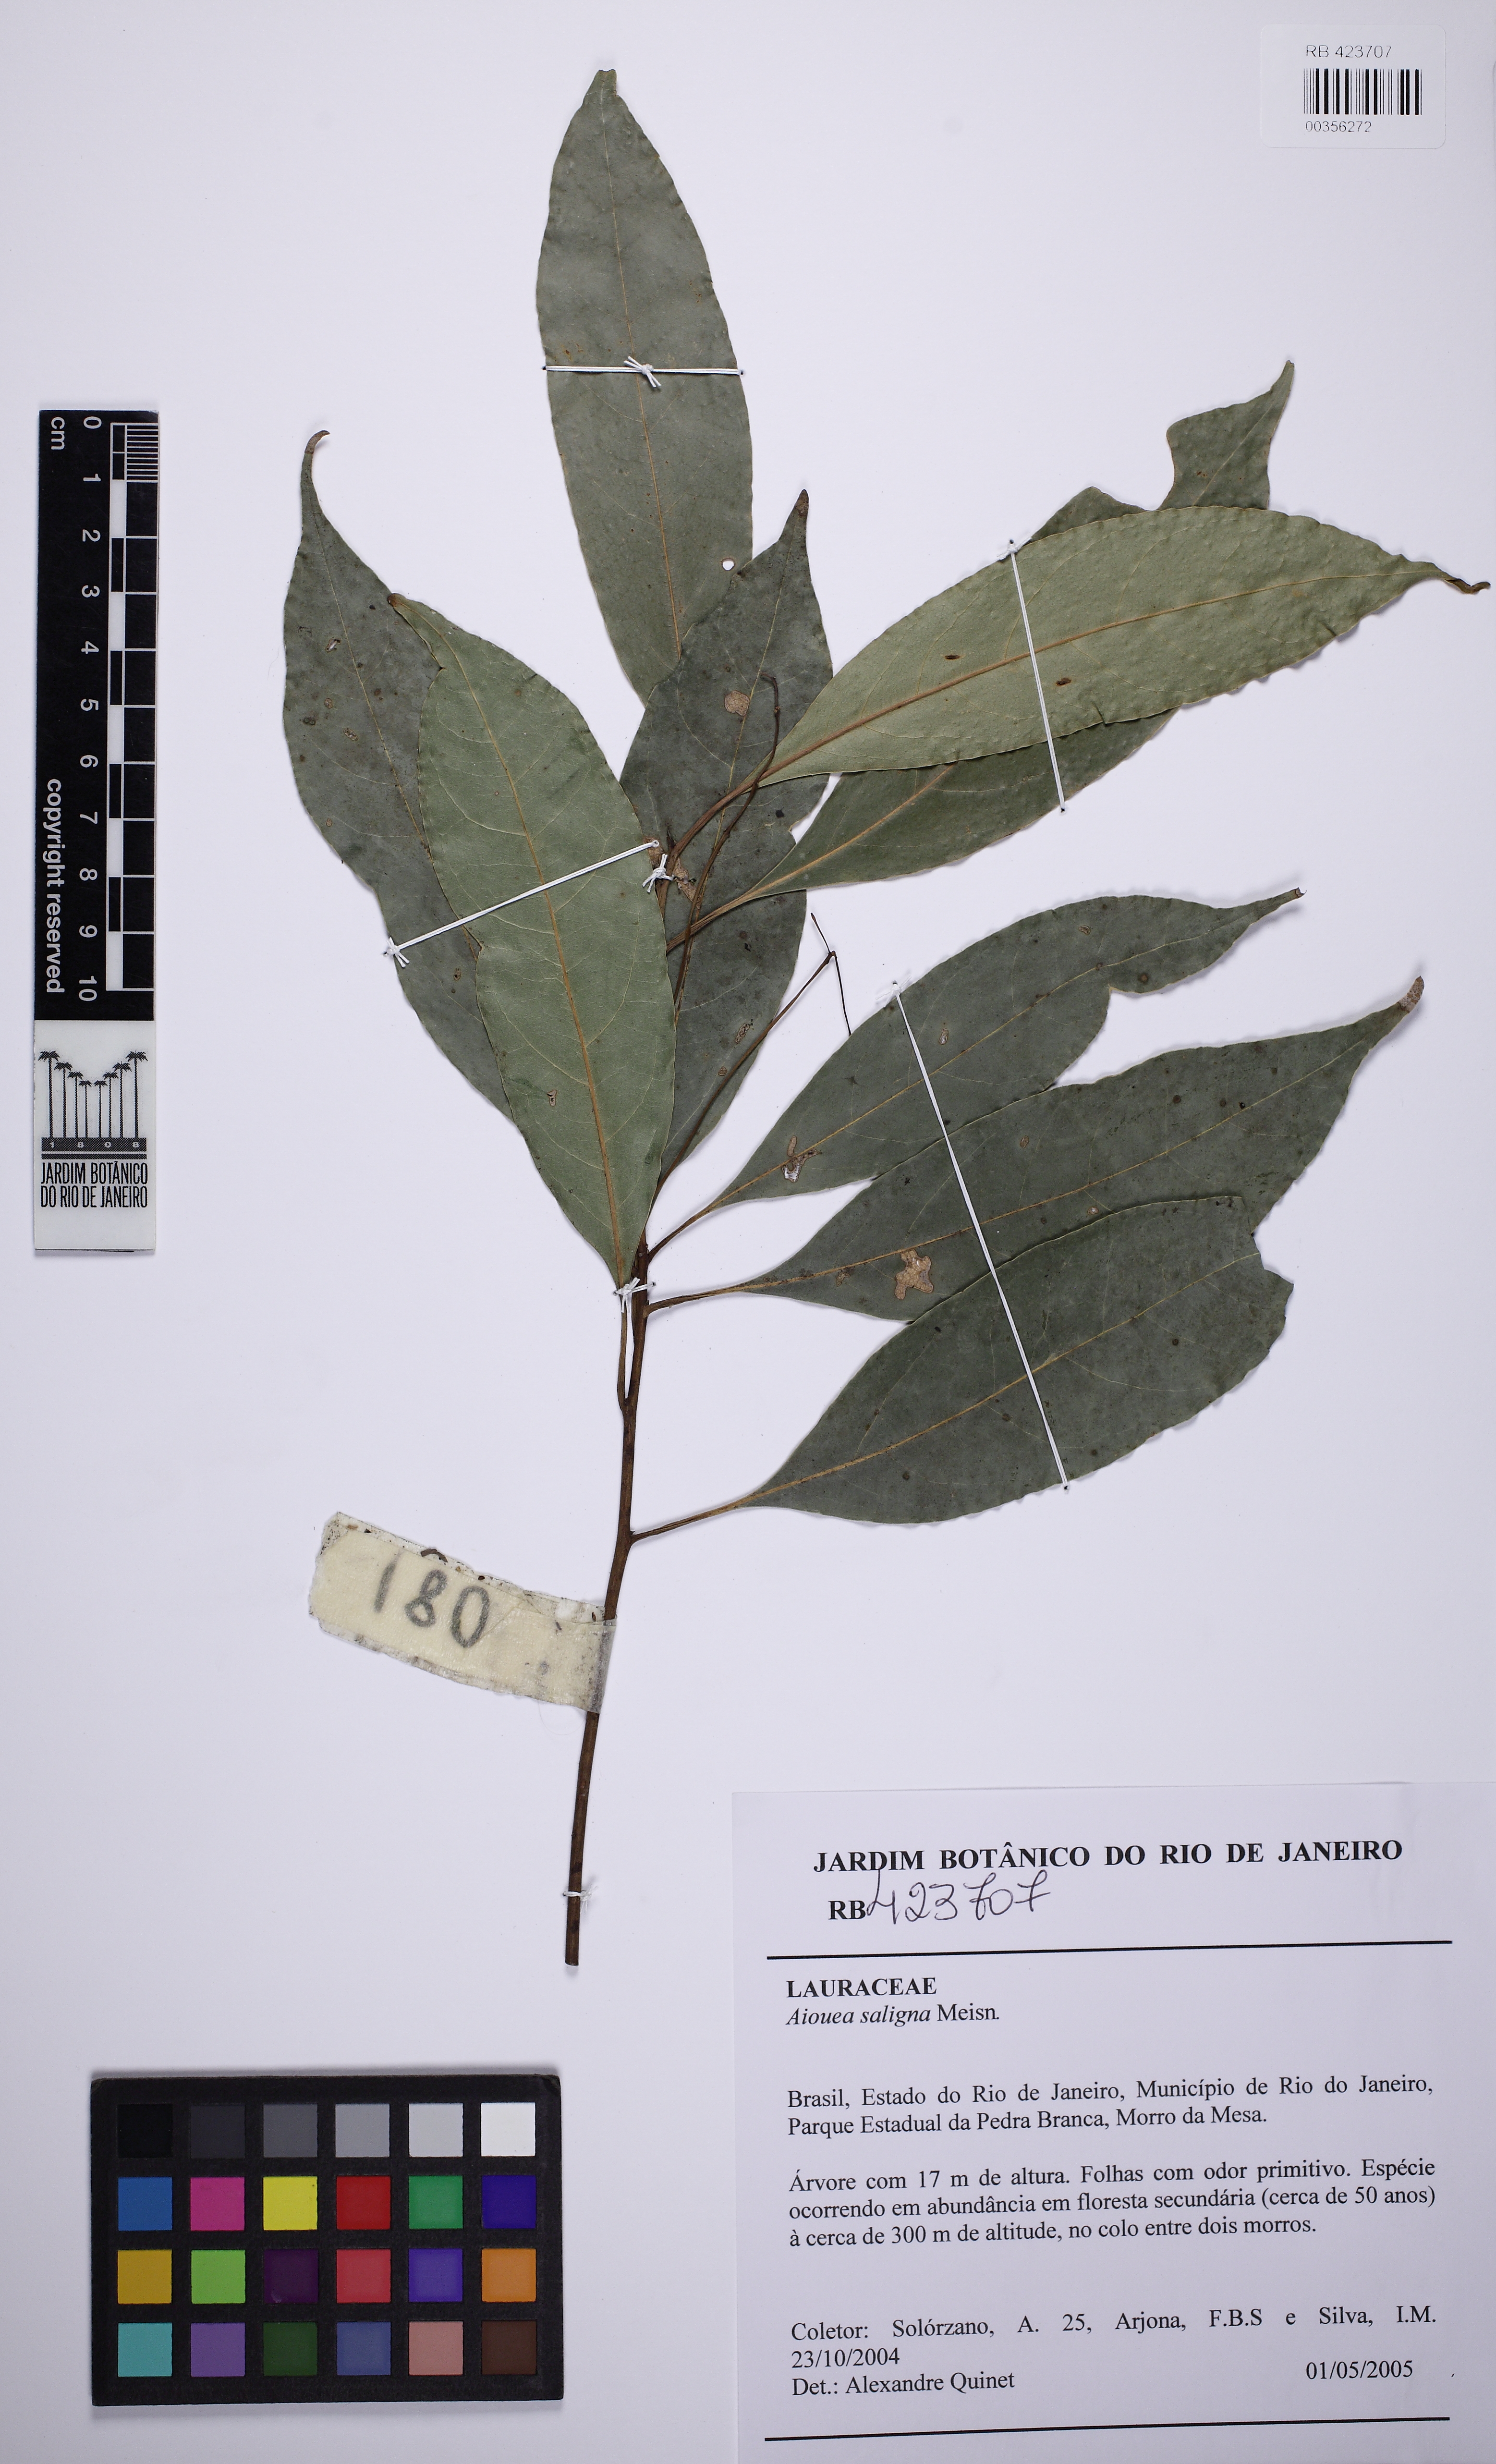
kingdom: Plantae
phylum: Tracheophyta
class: Magnoliopsida
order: Laurales
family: Lauraceae
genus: Aiouea
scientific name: Aiouea saligna
